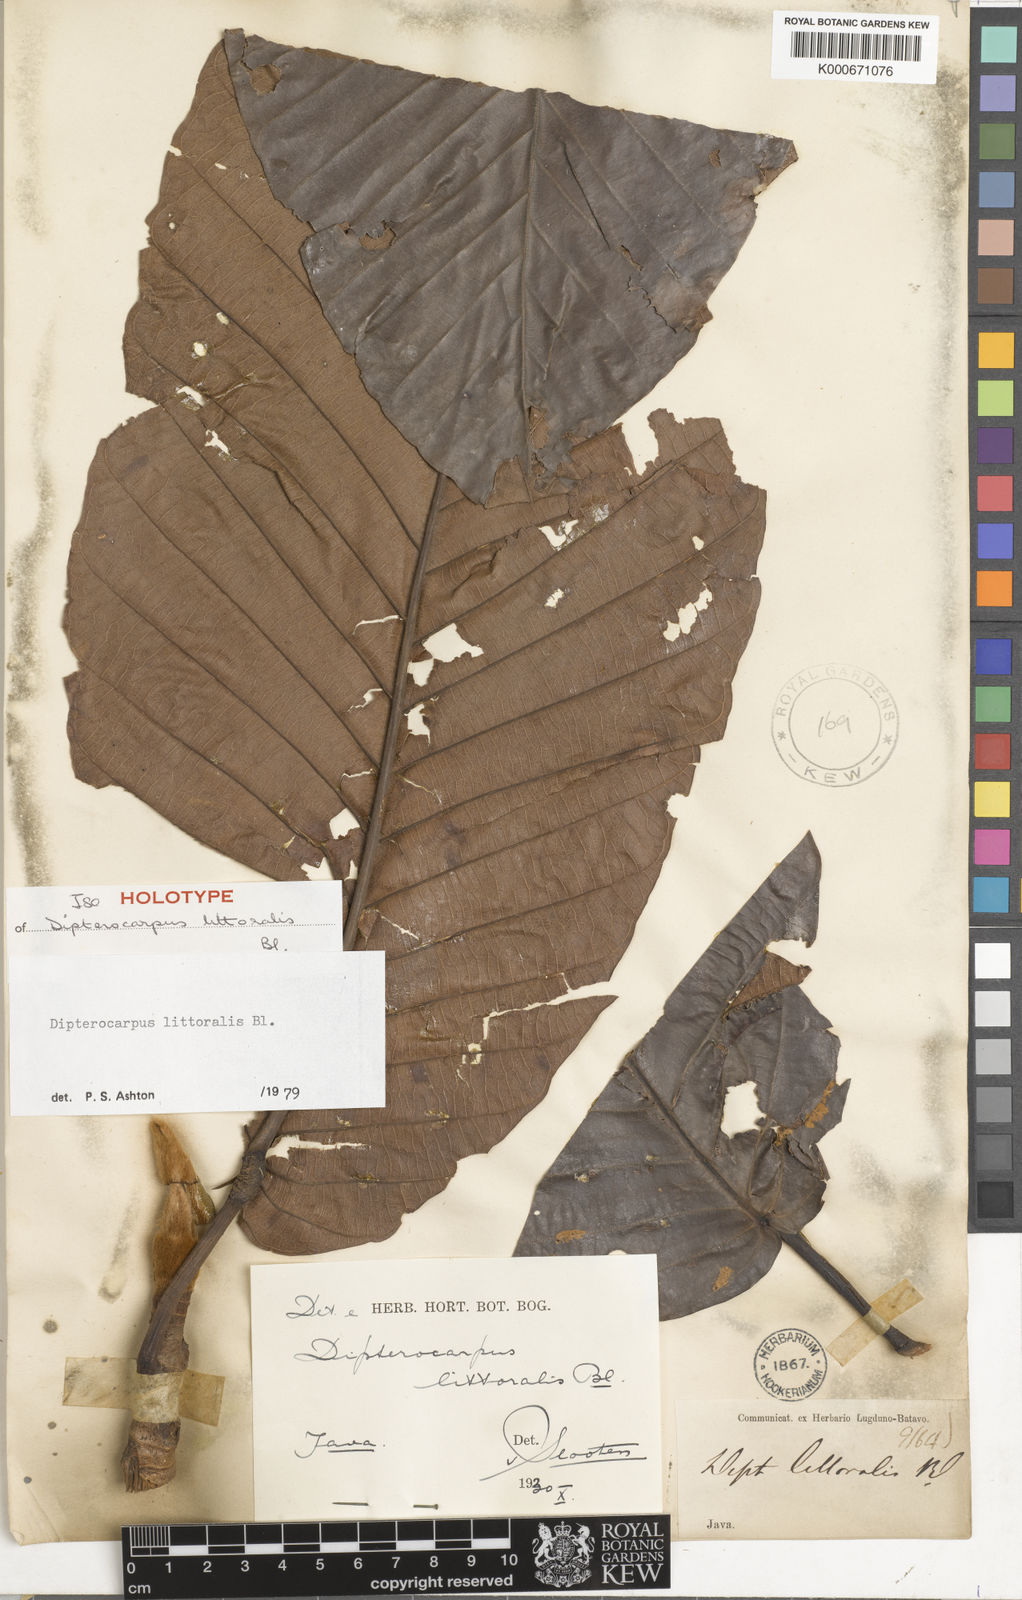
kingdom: Plantae
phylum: Tracheophyta
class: Magnoliopsida
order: Malvales
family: Dipterocarpaceae
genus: Dipterocarpus
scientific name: Dipterocarpus littoralis
